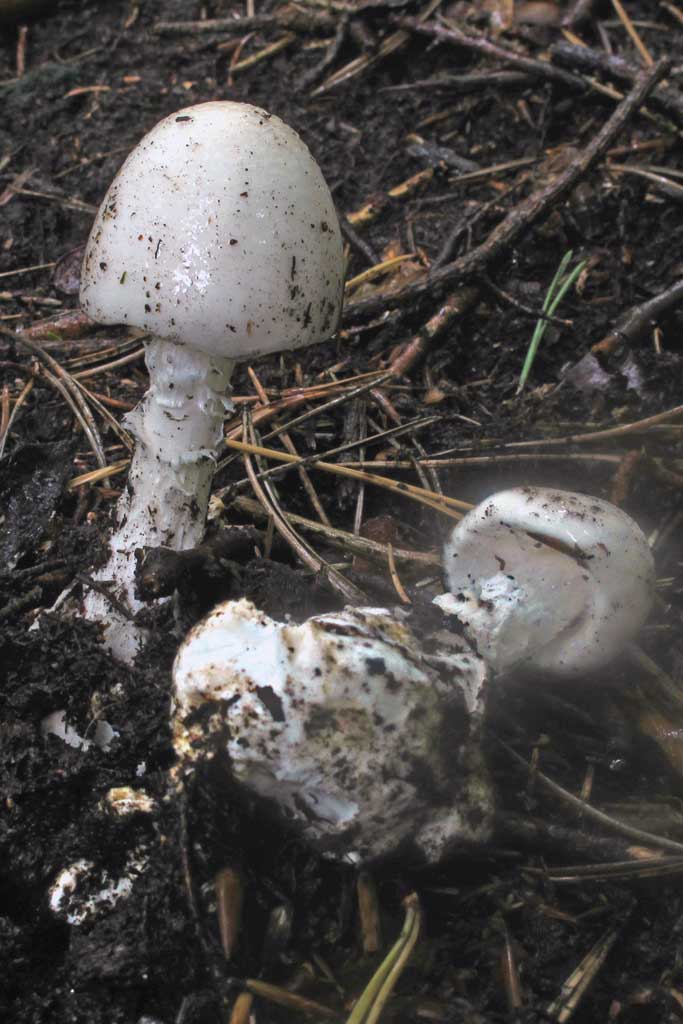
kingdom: Fungi
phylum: Basidiomycota
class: Agaricomycetes
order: Agaricales
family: Amanitaceae
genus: Amanita
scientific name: Amanita virosa
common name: snehvid fluesvamp
